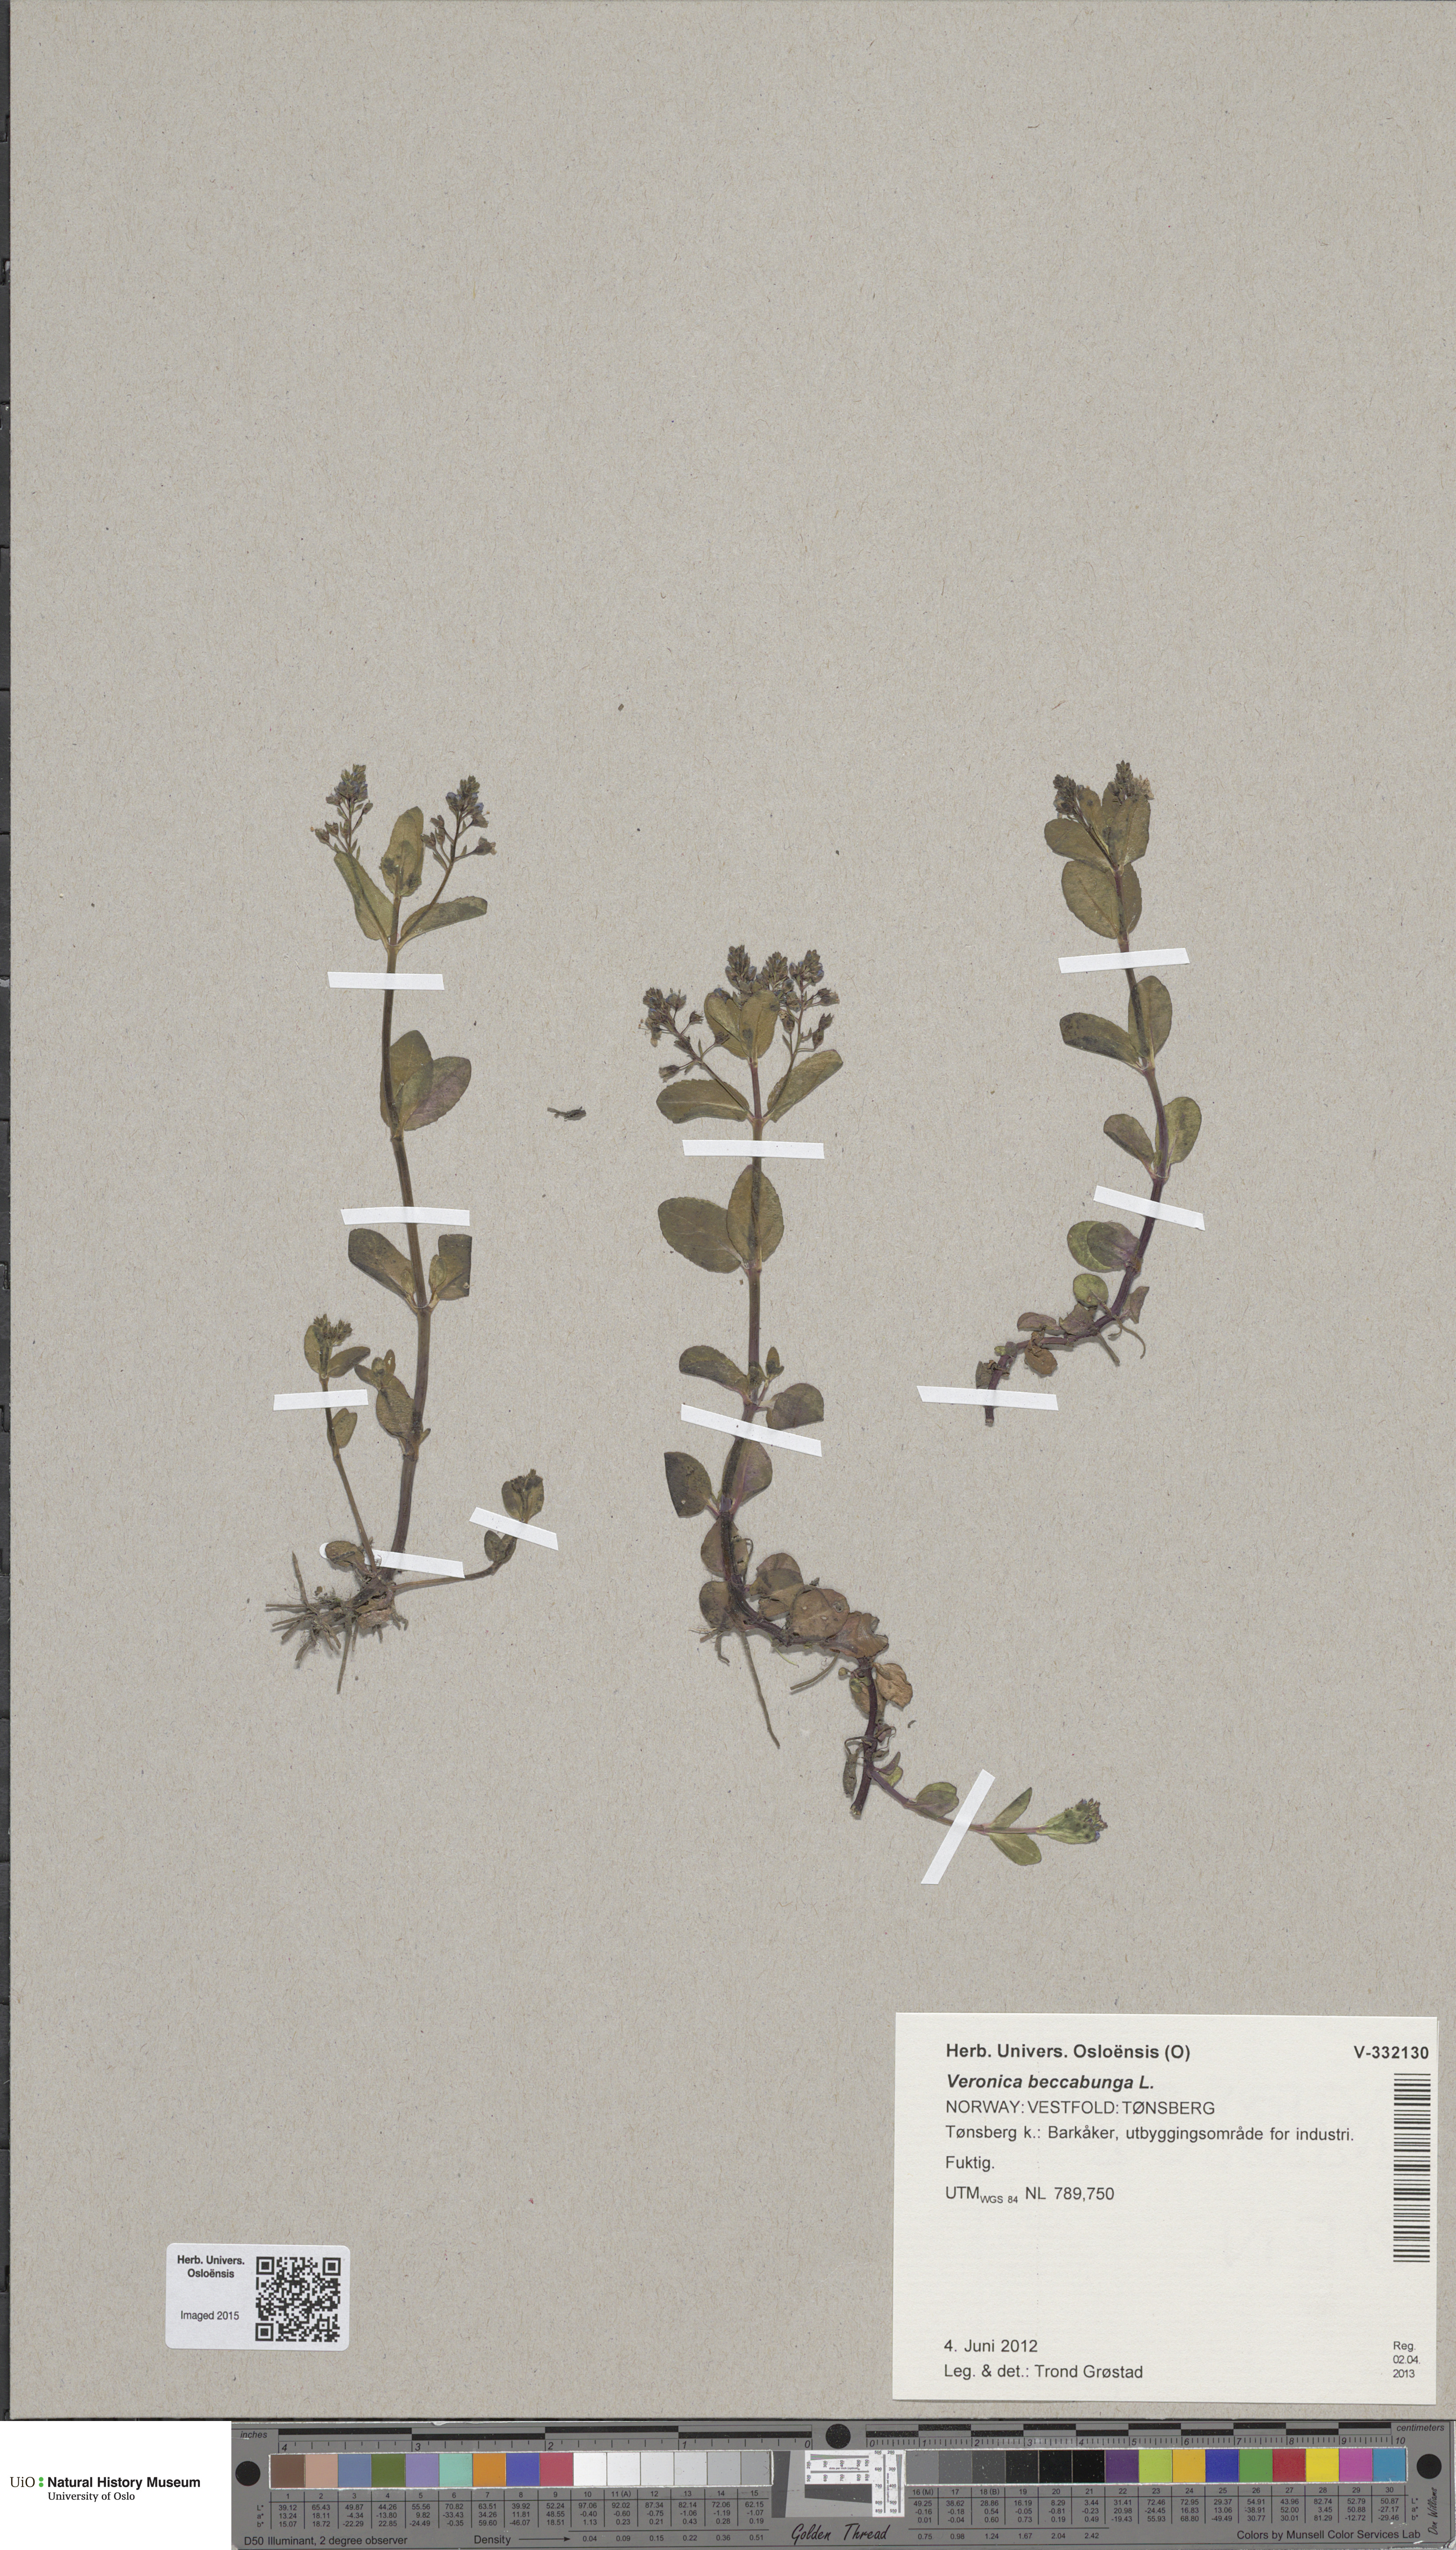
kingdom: Plantae
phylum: Tracheophyta
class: Magnoliopsida
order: Lamiales
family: Plantaginaceae
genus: Veronica
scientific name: Veronica beccabunga
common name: Brooklime
